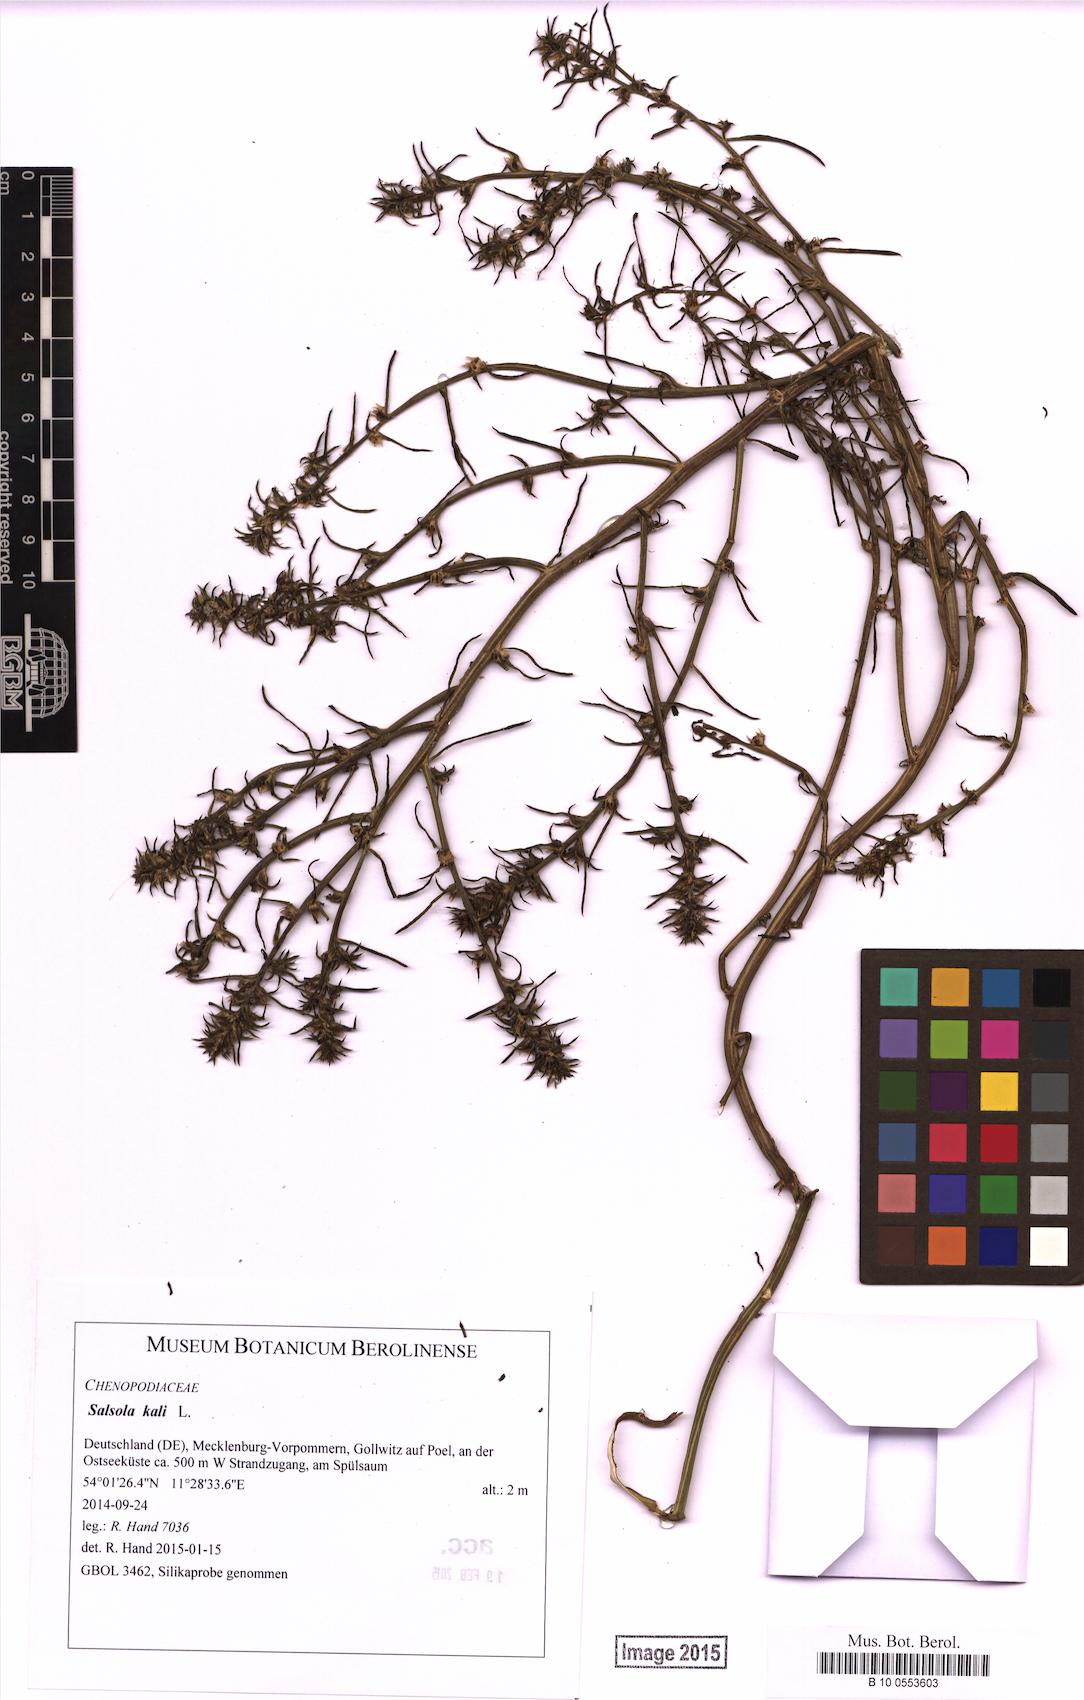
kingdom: Plantae
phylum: Tracheophyta
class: Magnoliopsida
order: Caryophyllales
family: Amaranthaceae
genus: Salsola
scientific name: Salsola kali
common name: Saltwort
